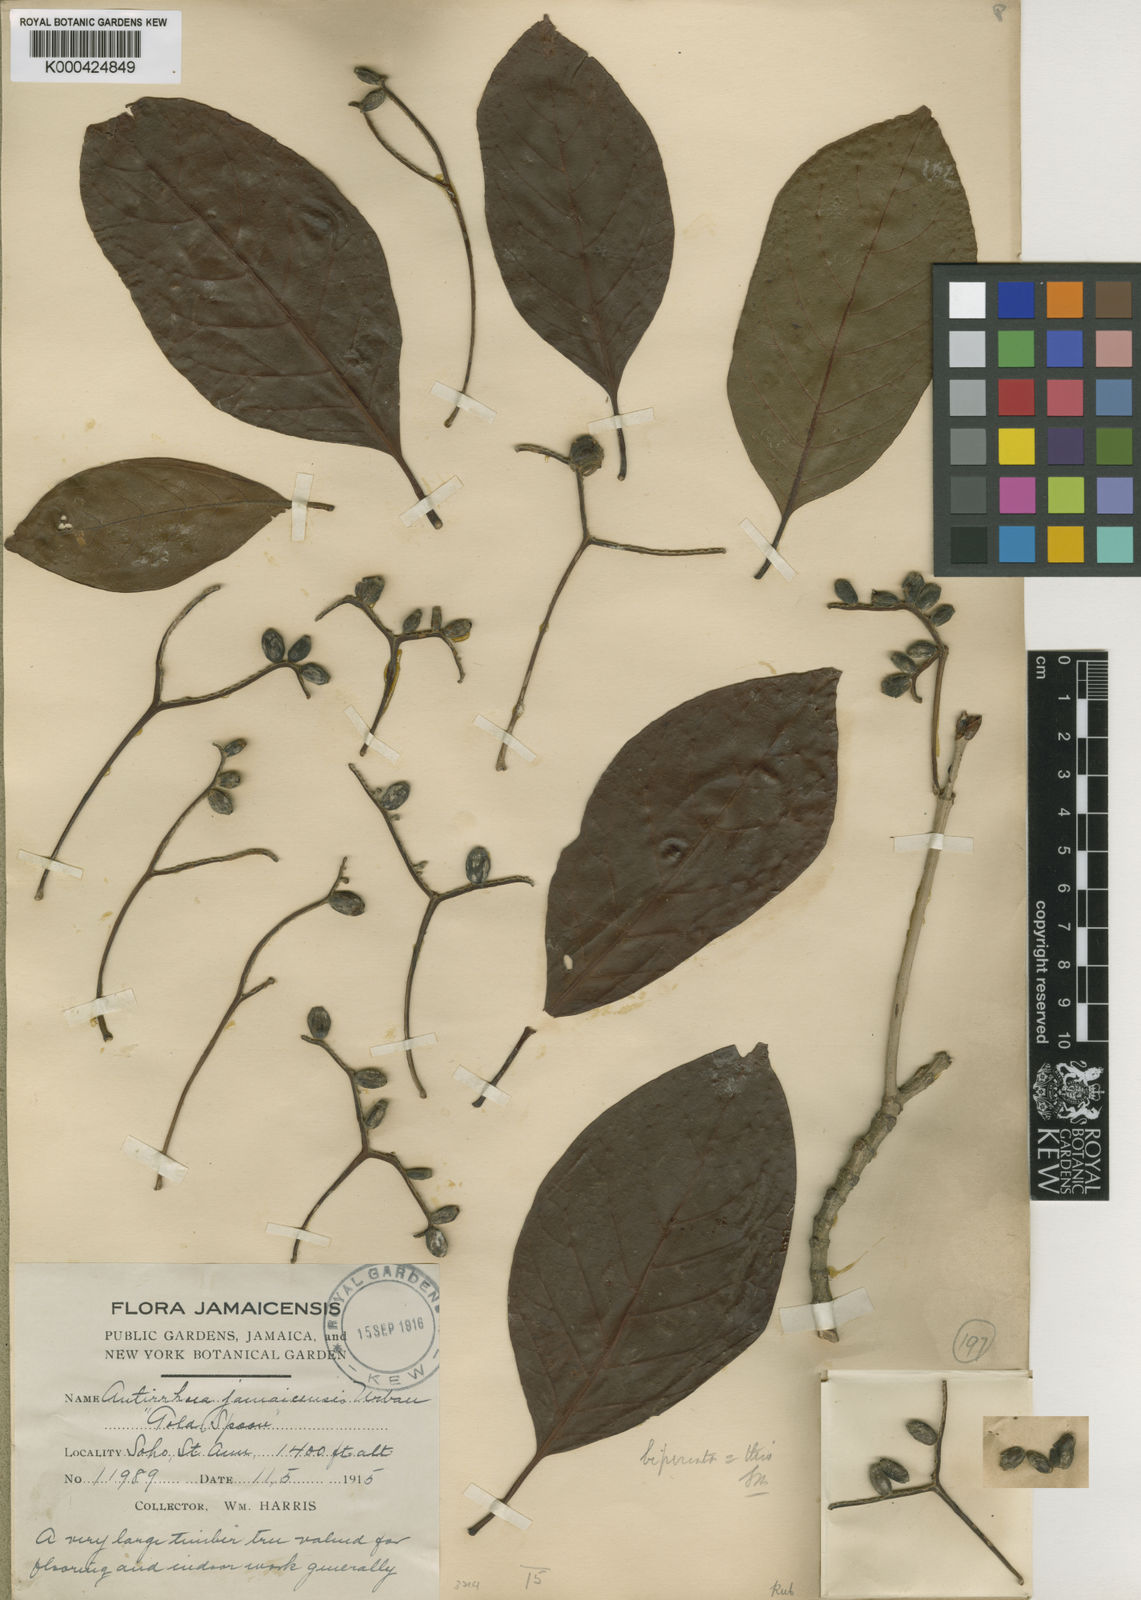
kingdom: Plantae
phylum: Tracheophyta
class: Magnoliopsida
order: Gentianales
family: Rubiaceae
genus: Stenostomum
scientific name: Stenostomum jamaicense
